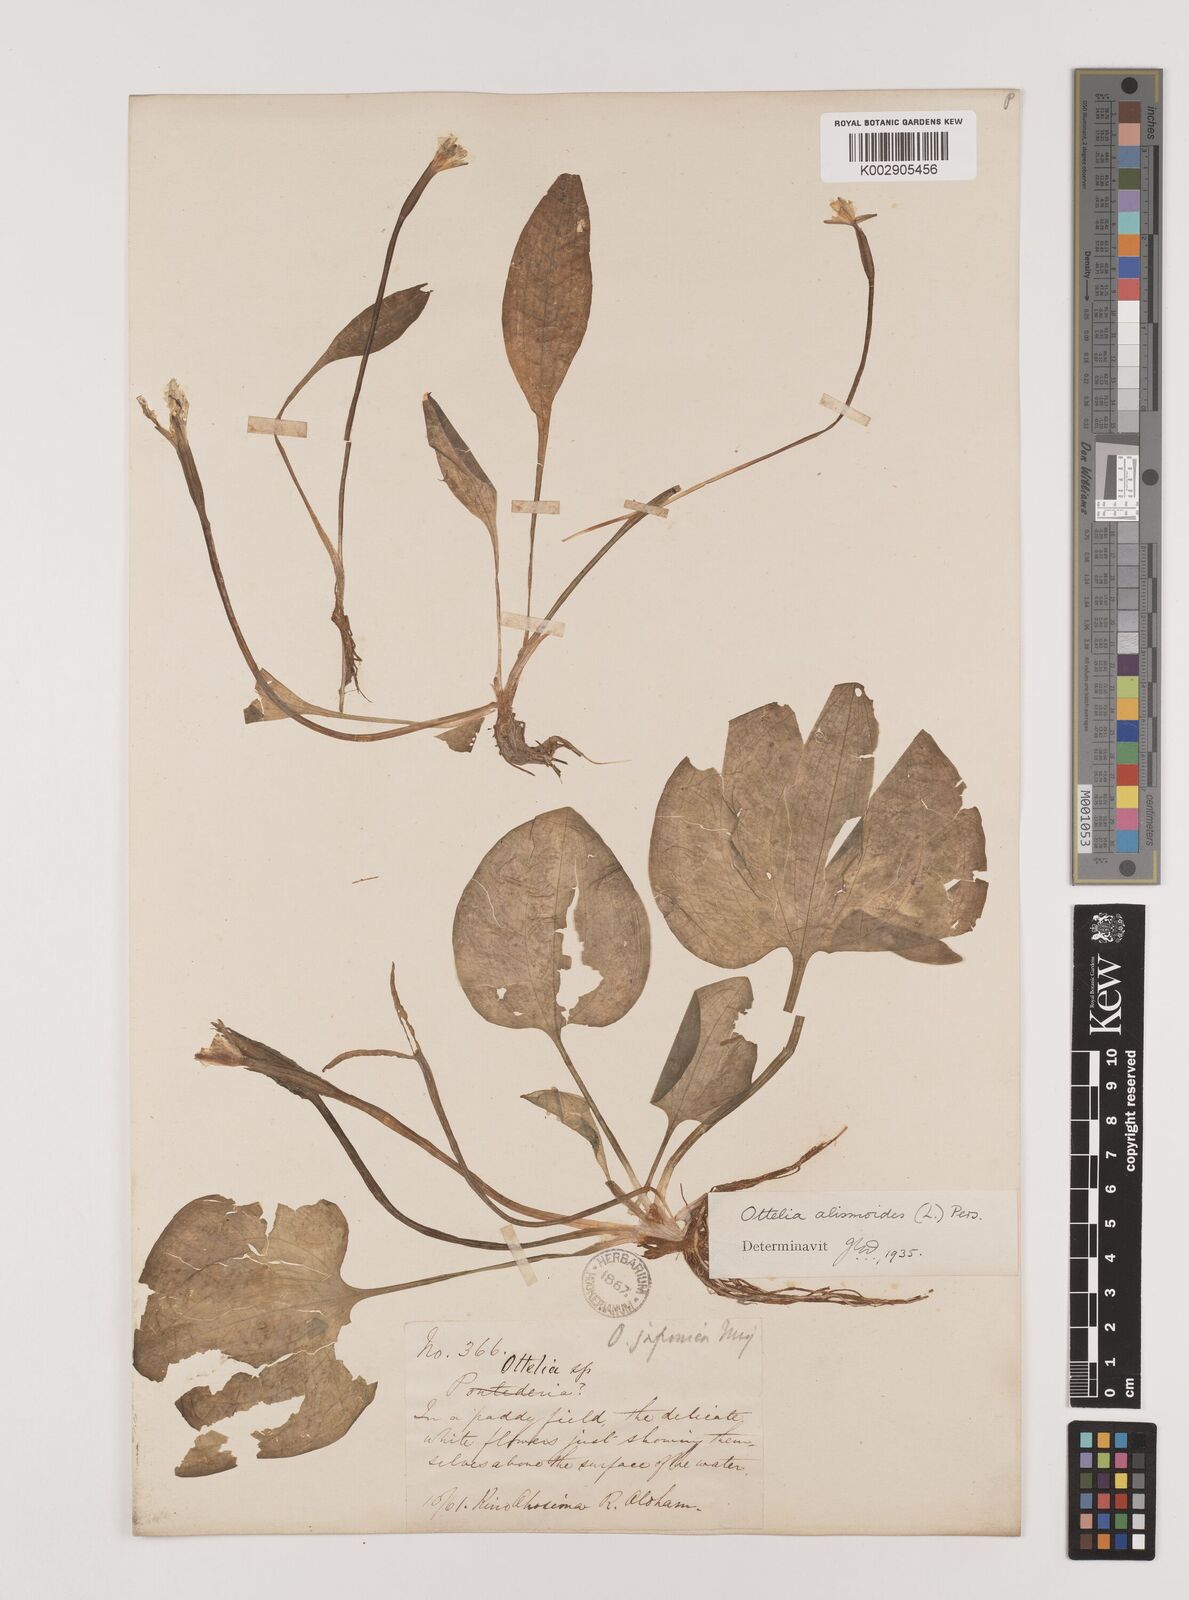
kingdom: Plantae
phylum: Tracheophyta
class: Liliopsida
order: Alismatales
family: Hydrocharitaceae
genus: Ottelia
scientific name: Ottelia alismoides
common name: Duck-lettuce
